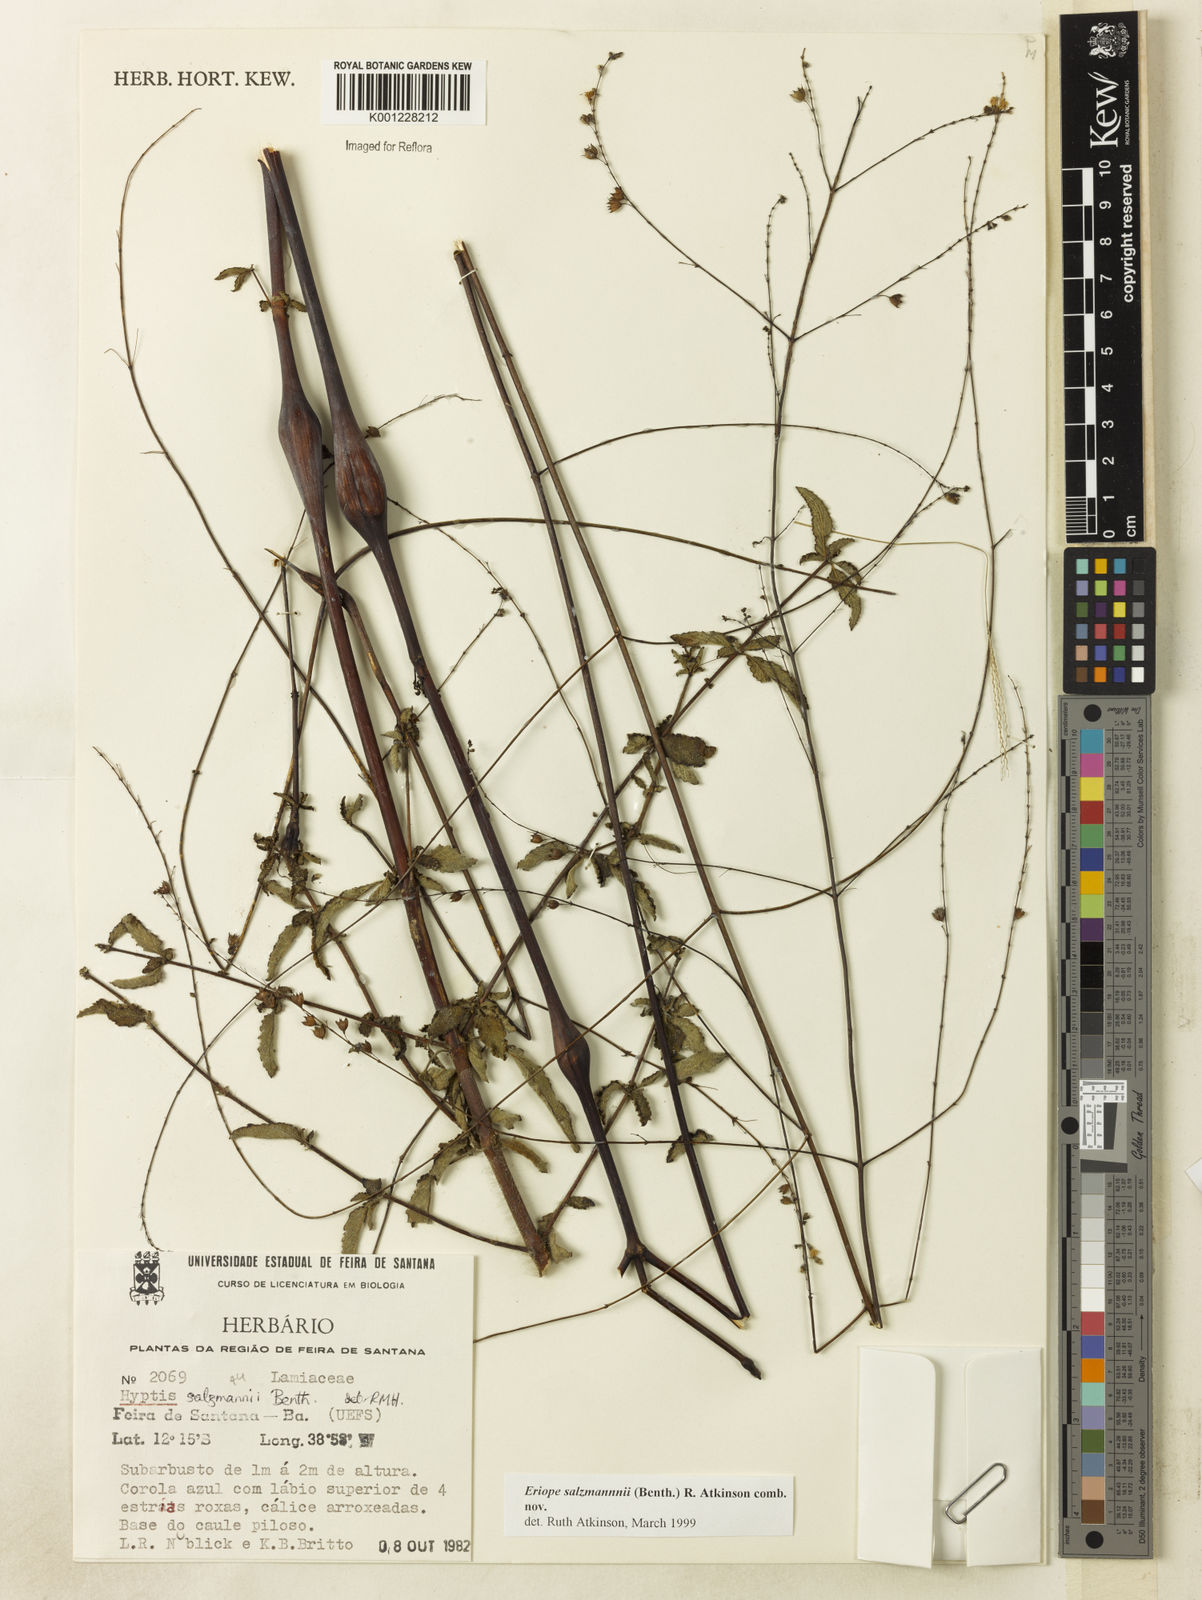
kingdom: Plantae
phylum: Tracheophyta
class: Magnoliopsida
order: Lamiales
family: Lamiaceae
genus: Hypenia
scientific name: Hypenia salzmannii
